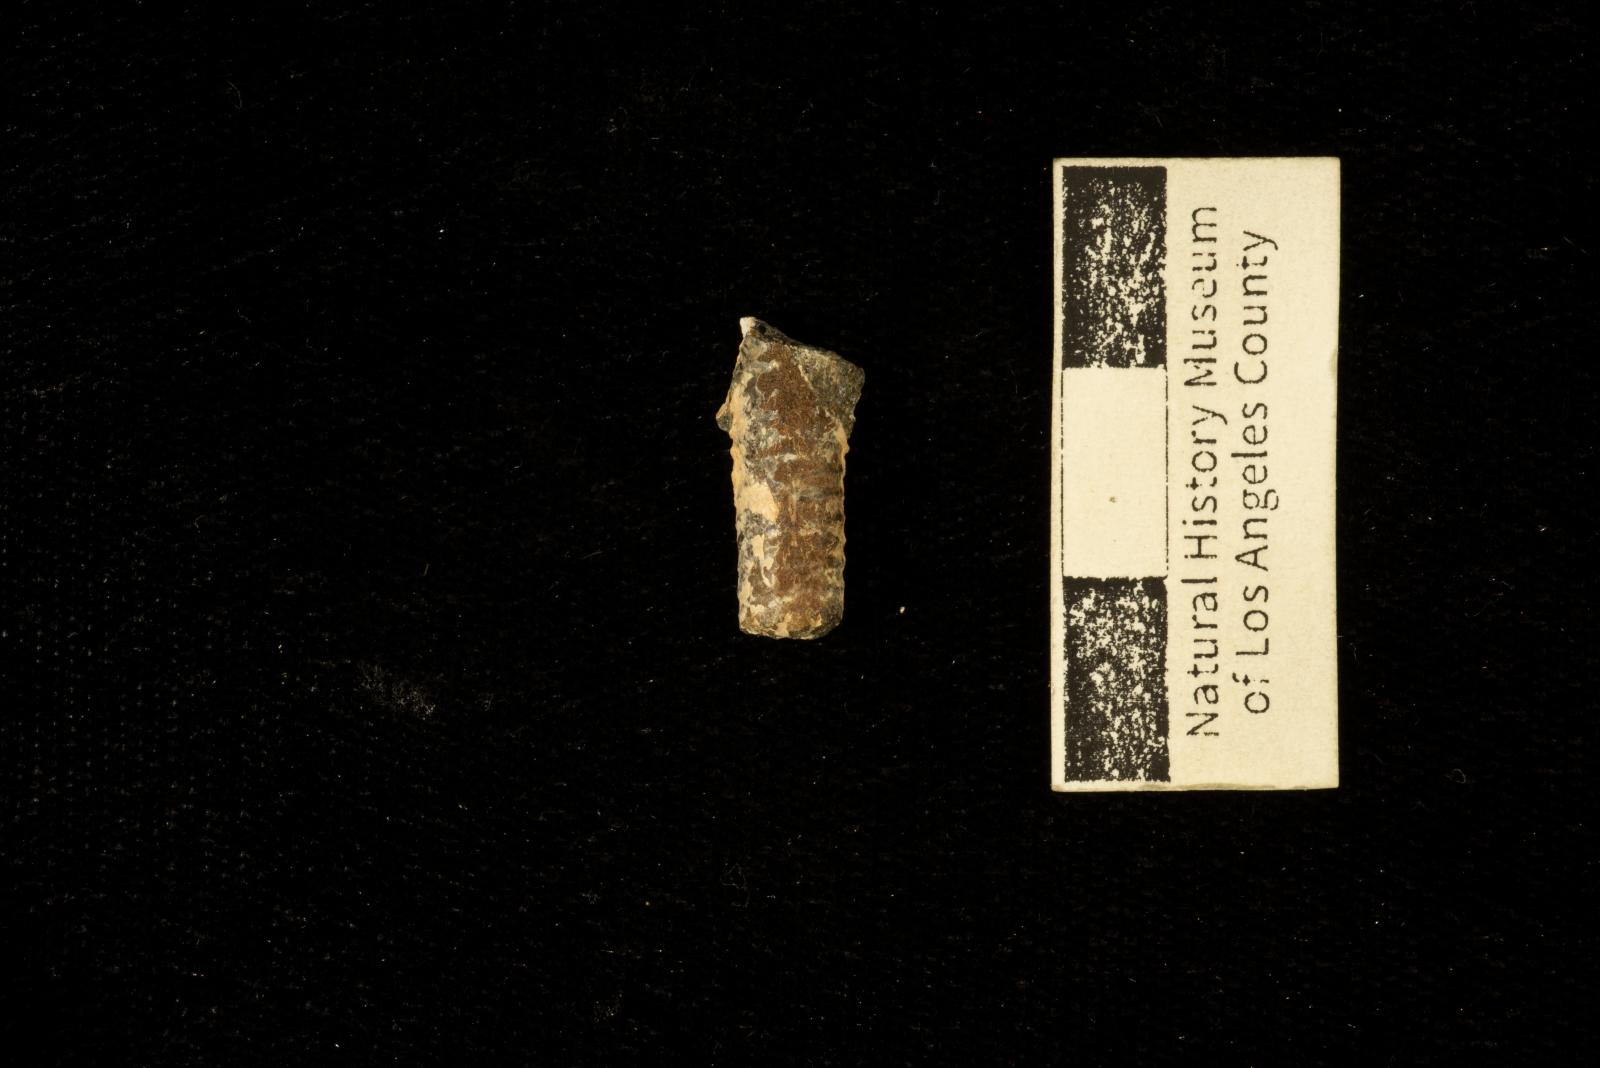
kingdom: Animalia
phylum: Mollusca
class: Cephalopoda
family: Diplomoceratidae
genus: Polyptychoceras
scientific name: Polyptychoceras
